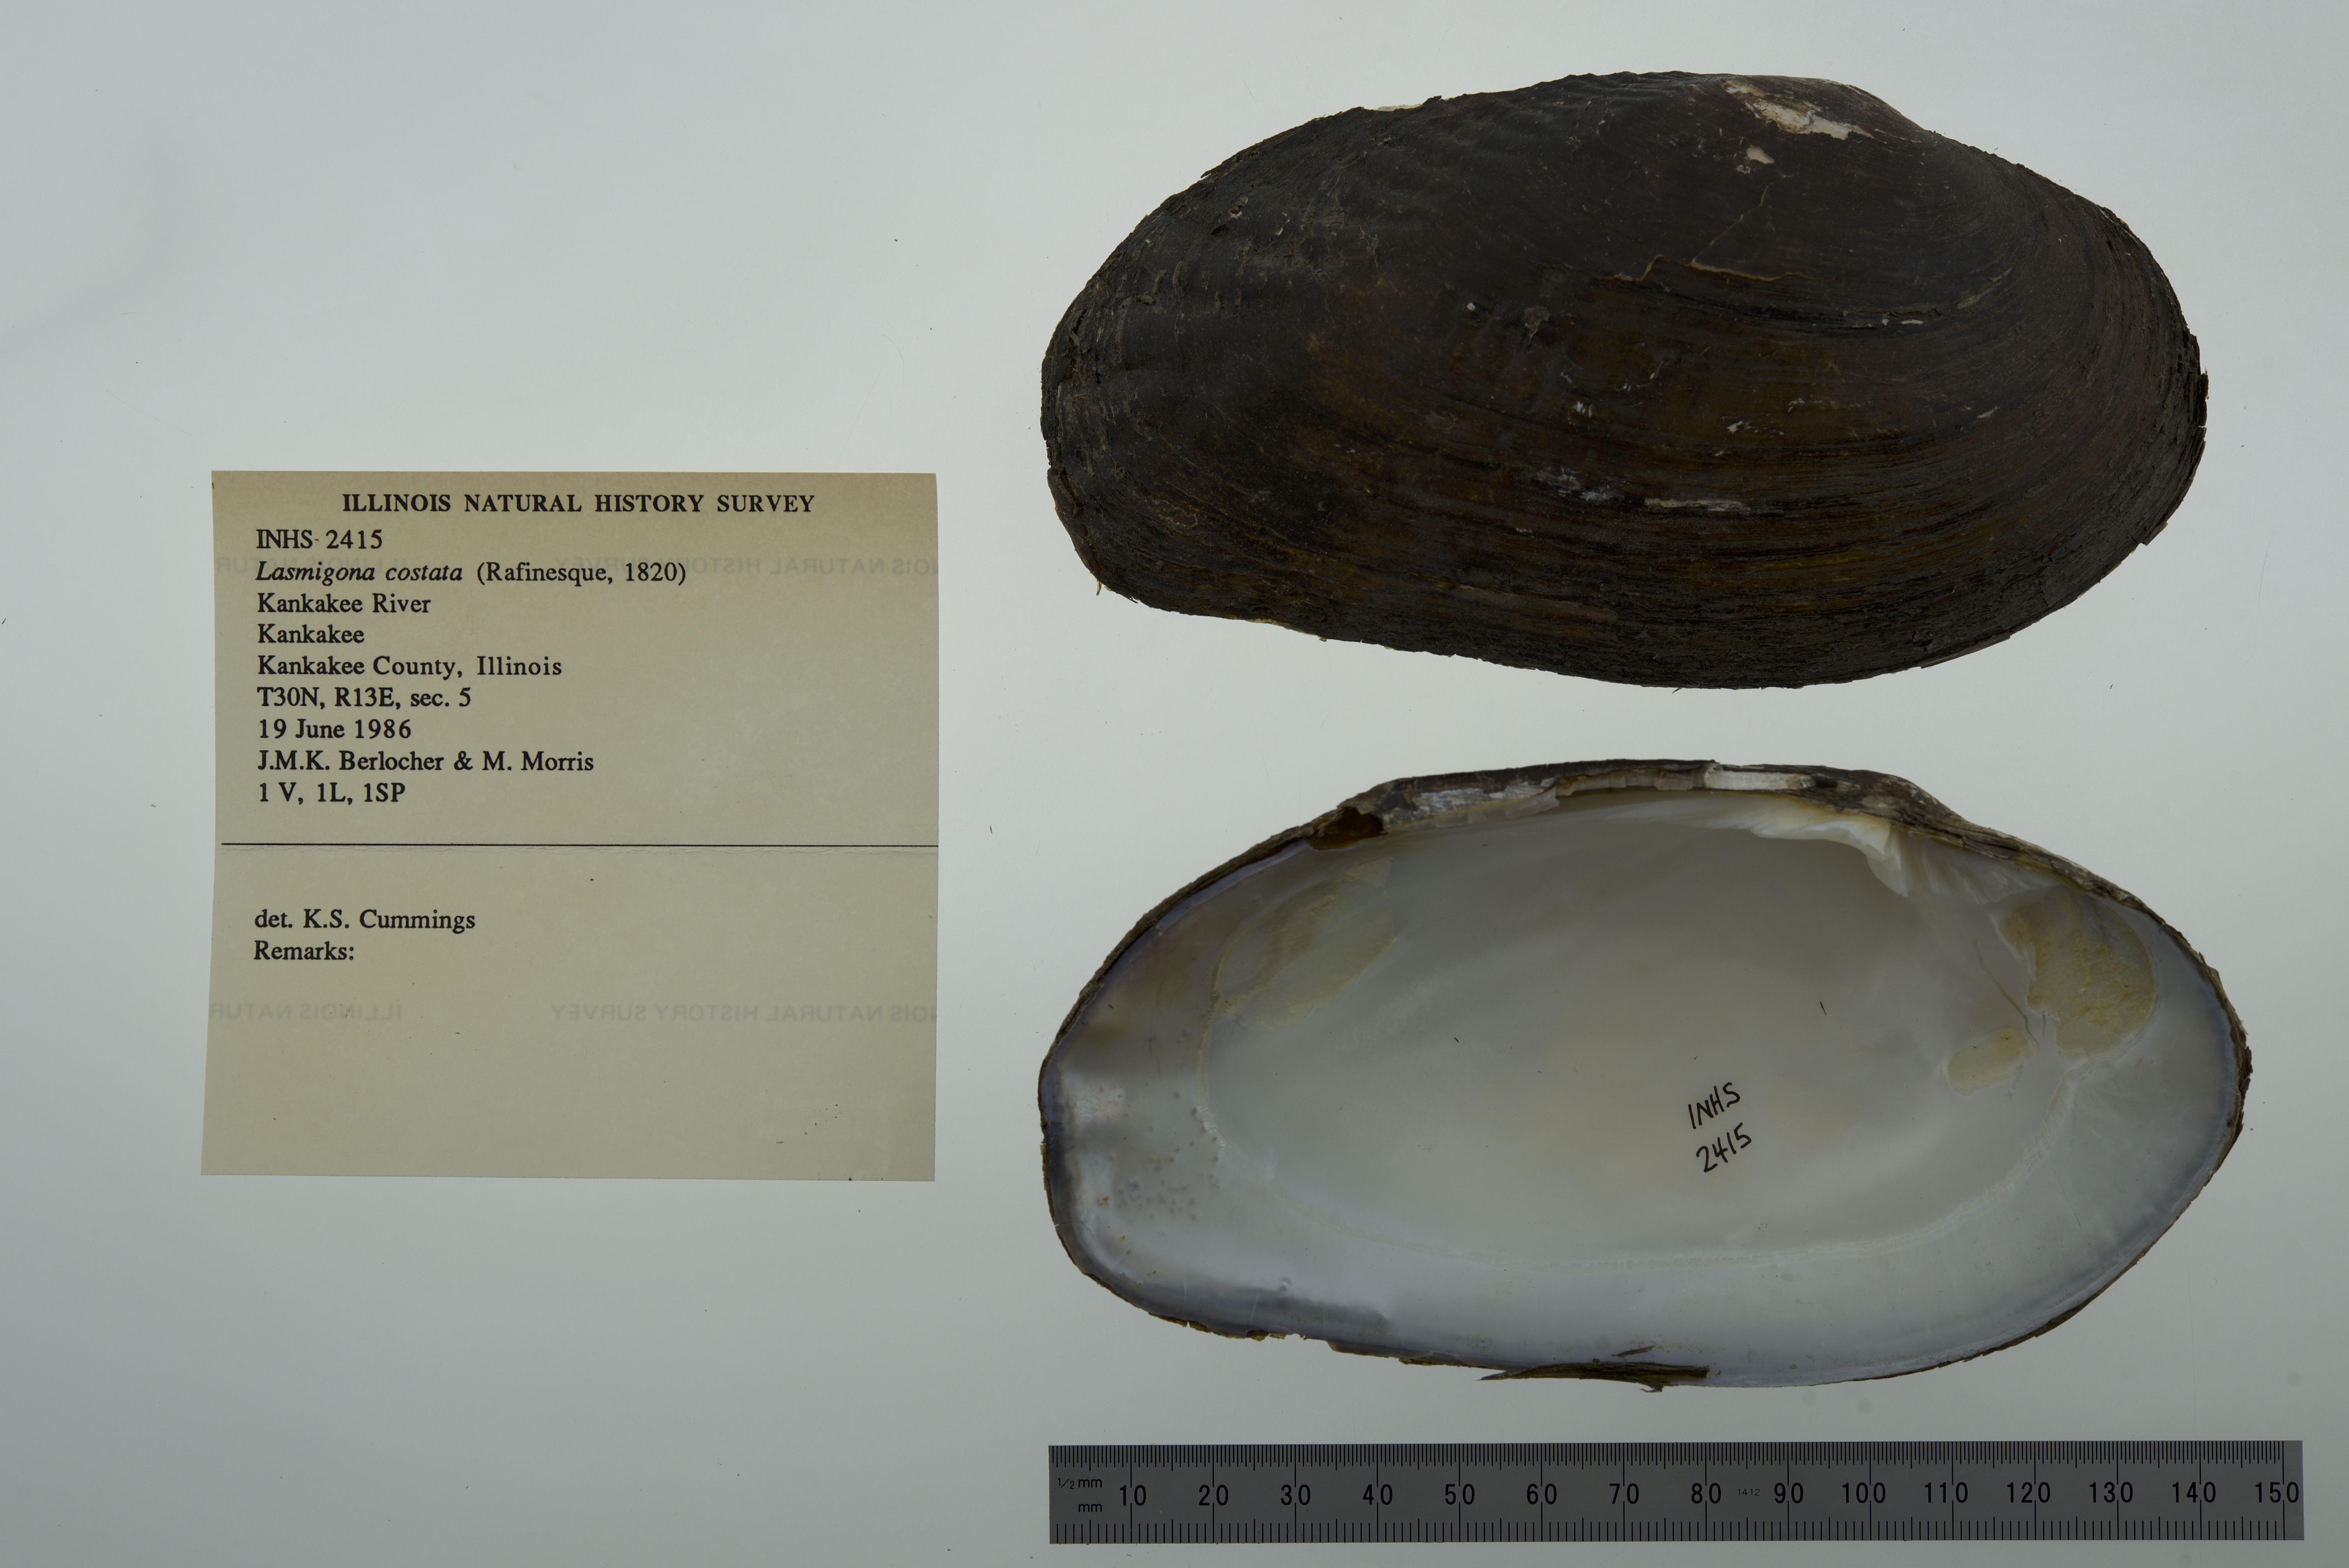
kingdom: Animalia
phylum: Mollusca
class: Bivalvia
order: Unionida
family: Unionidae
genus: Lasmigona
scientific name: Lasmigona costata
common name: Flutedshell
